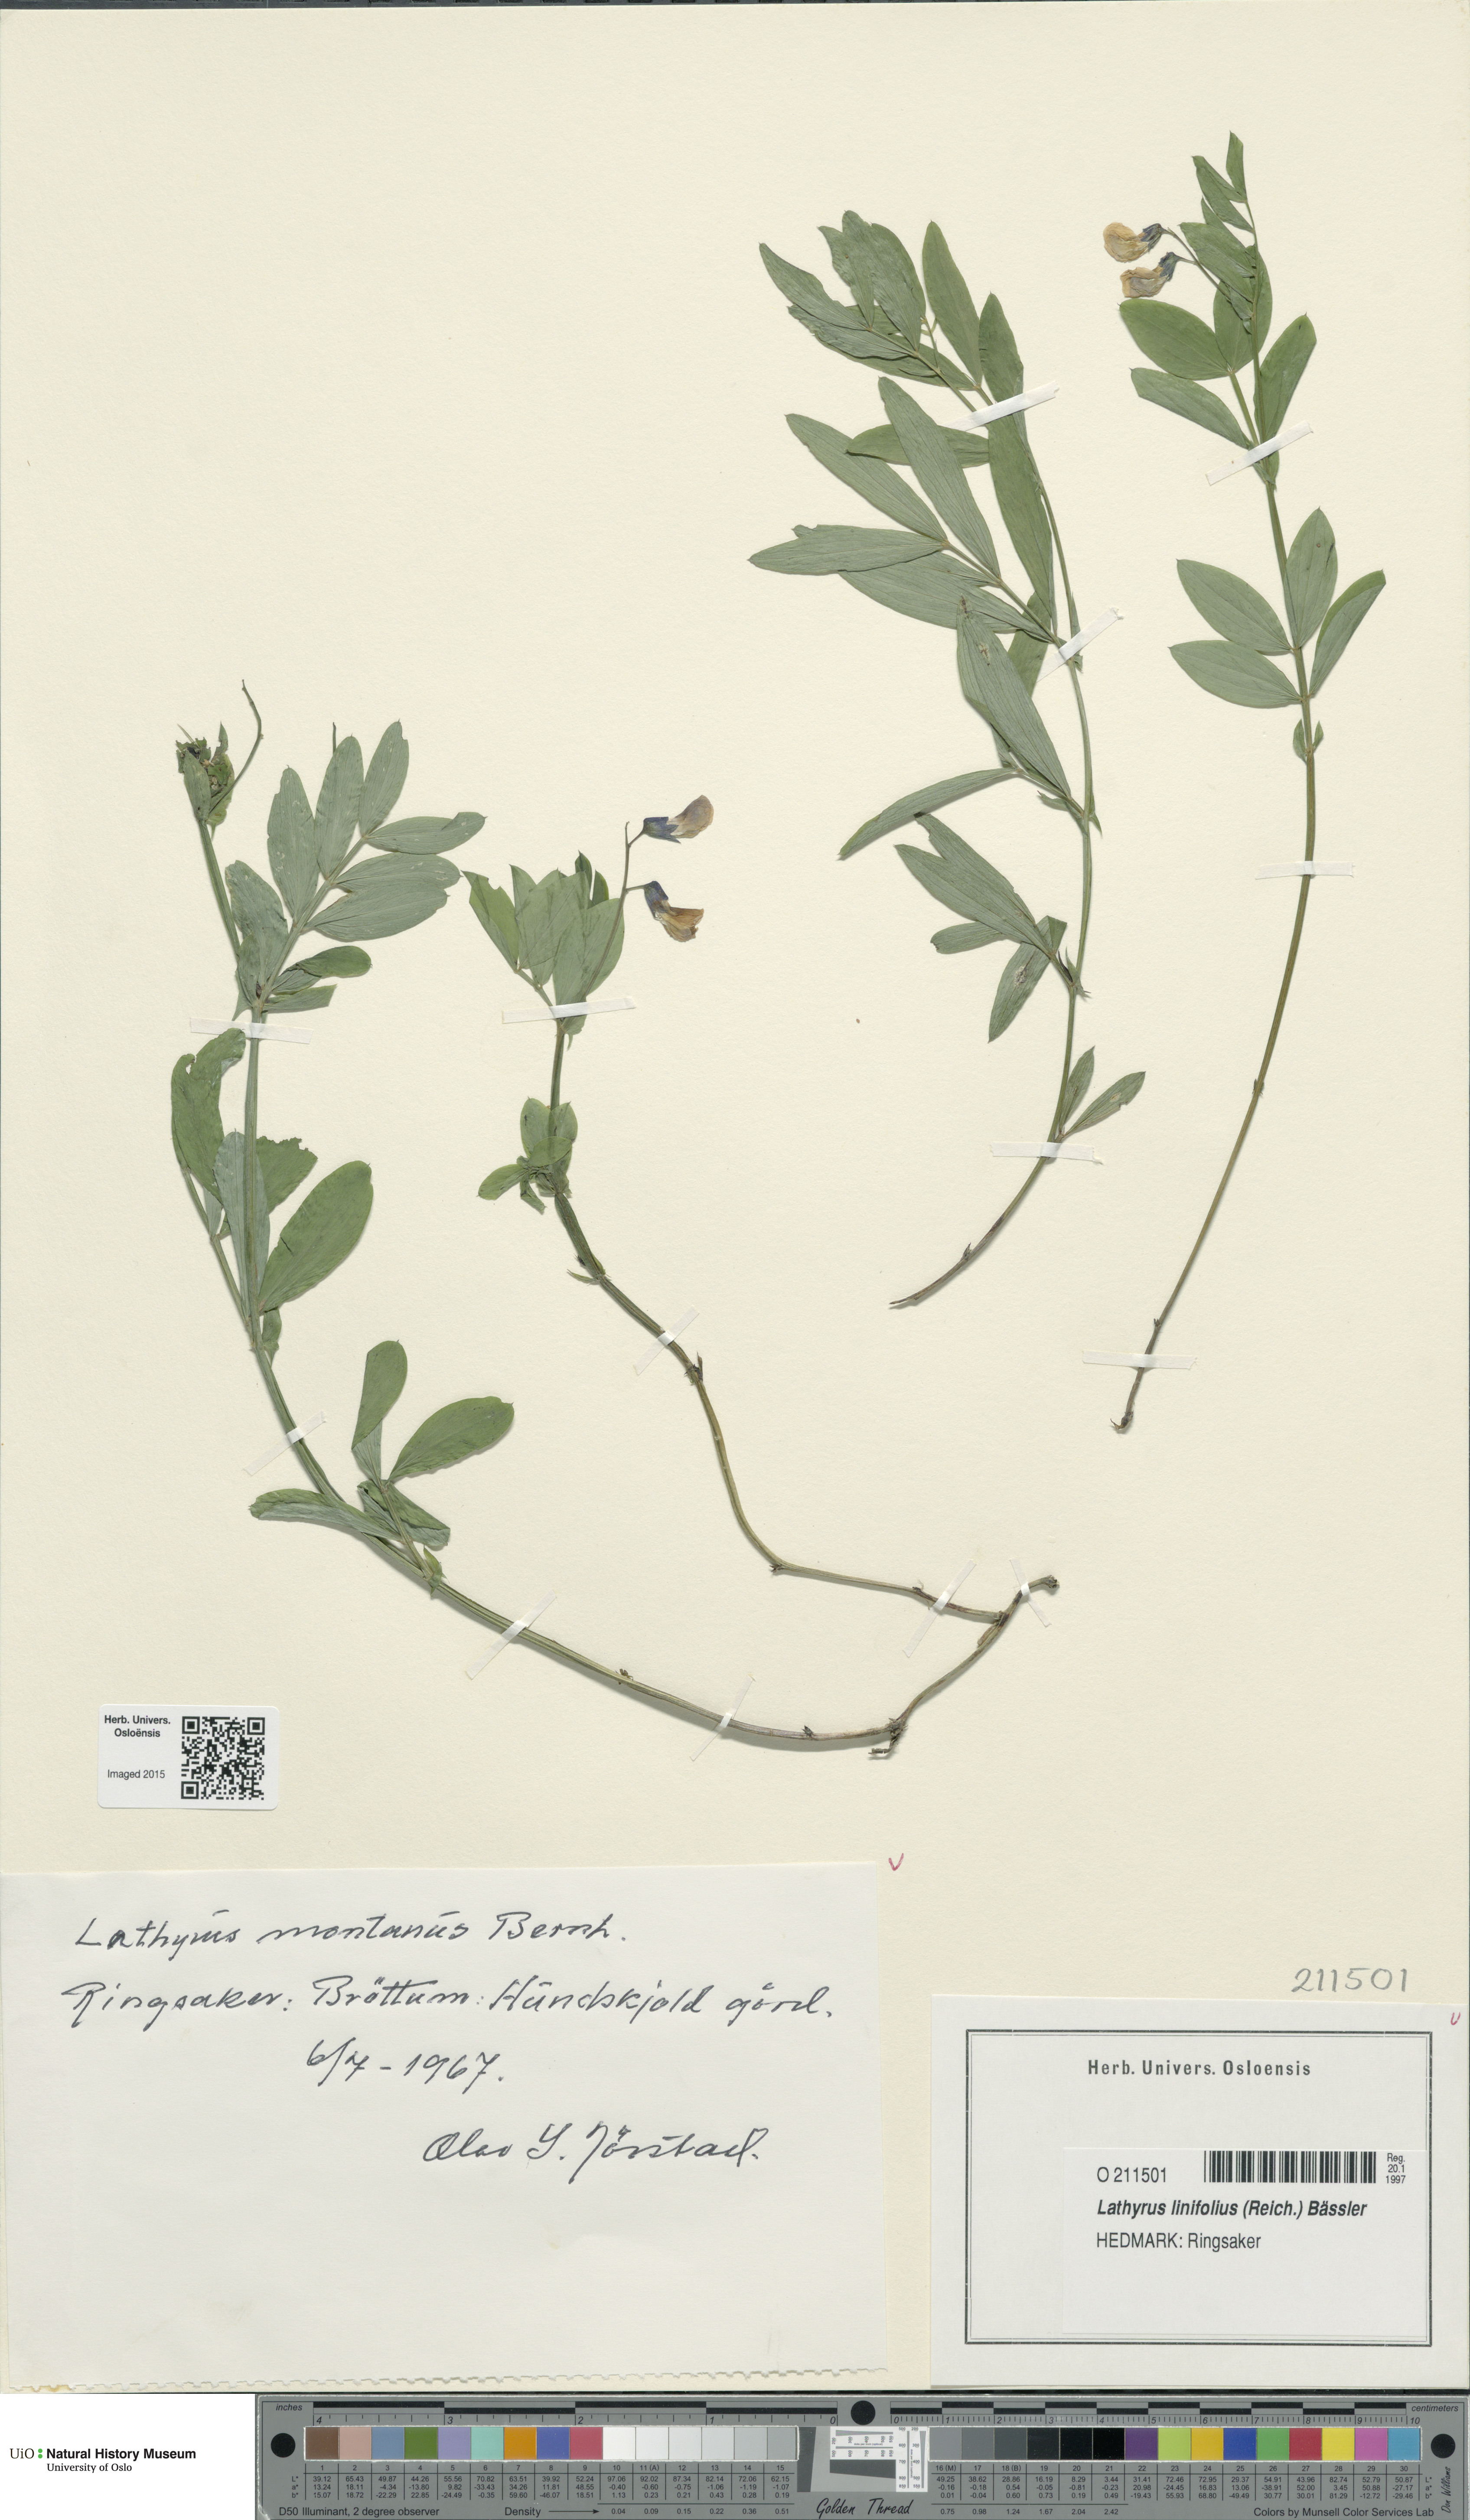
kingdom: Plantae
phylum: Tracheophyta
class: Magnoliopsida
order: Fabales
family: Fabaceae
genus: Lathyrus
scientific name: Lathyrus linifolius
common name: Bitter-vetch
